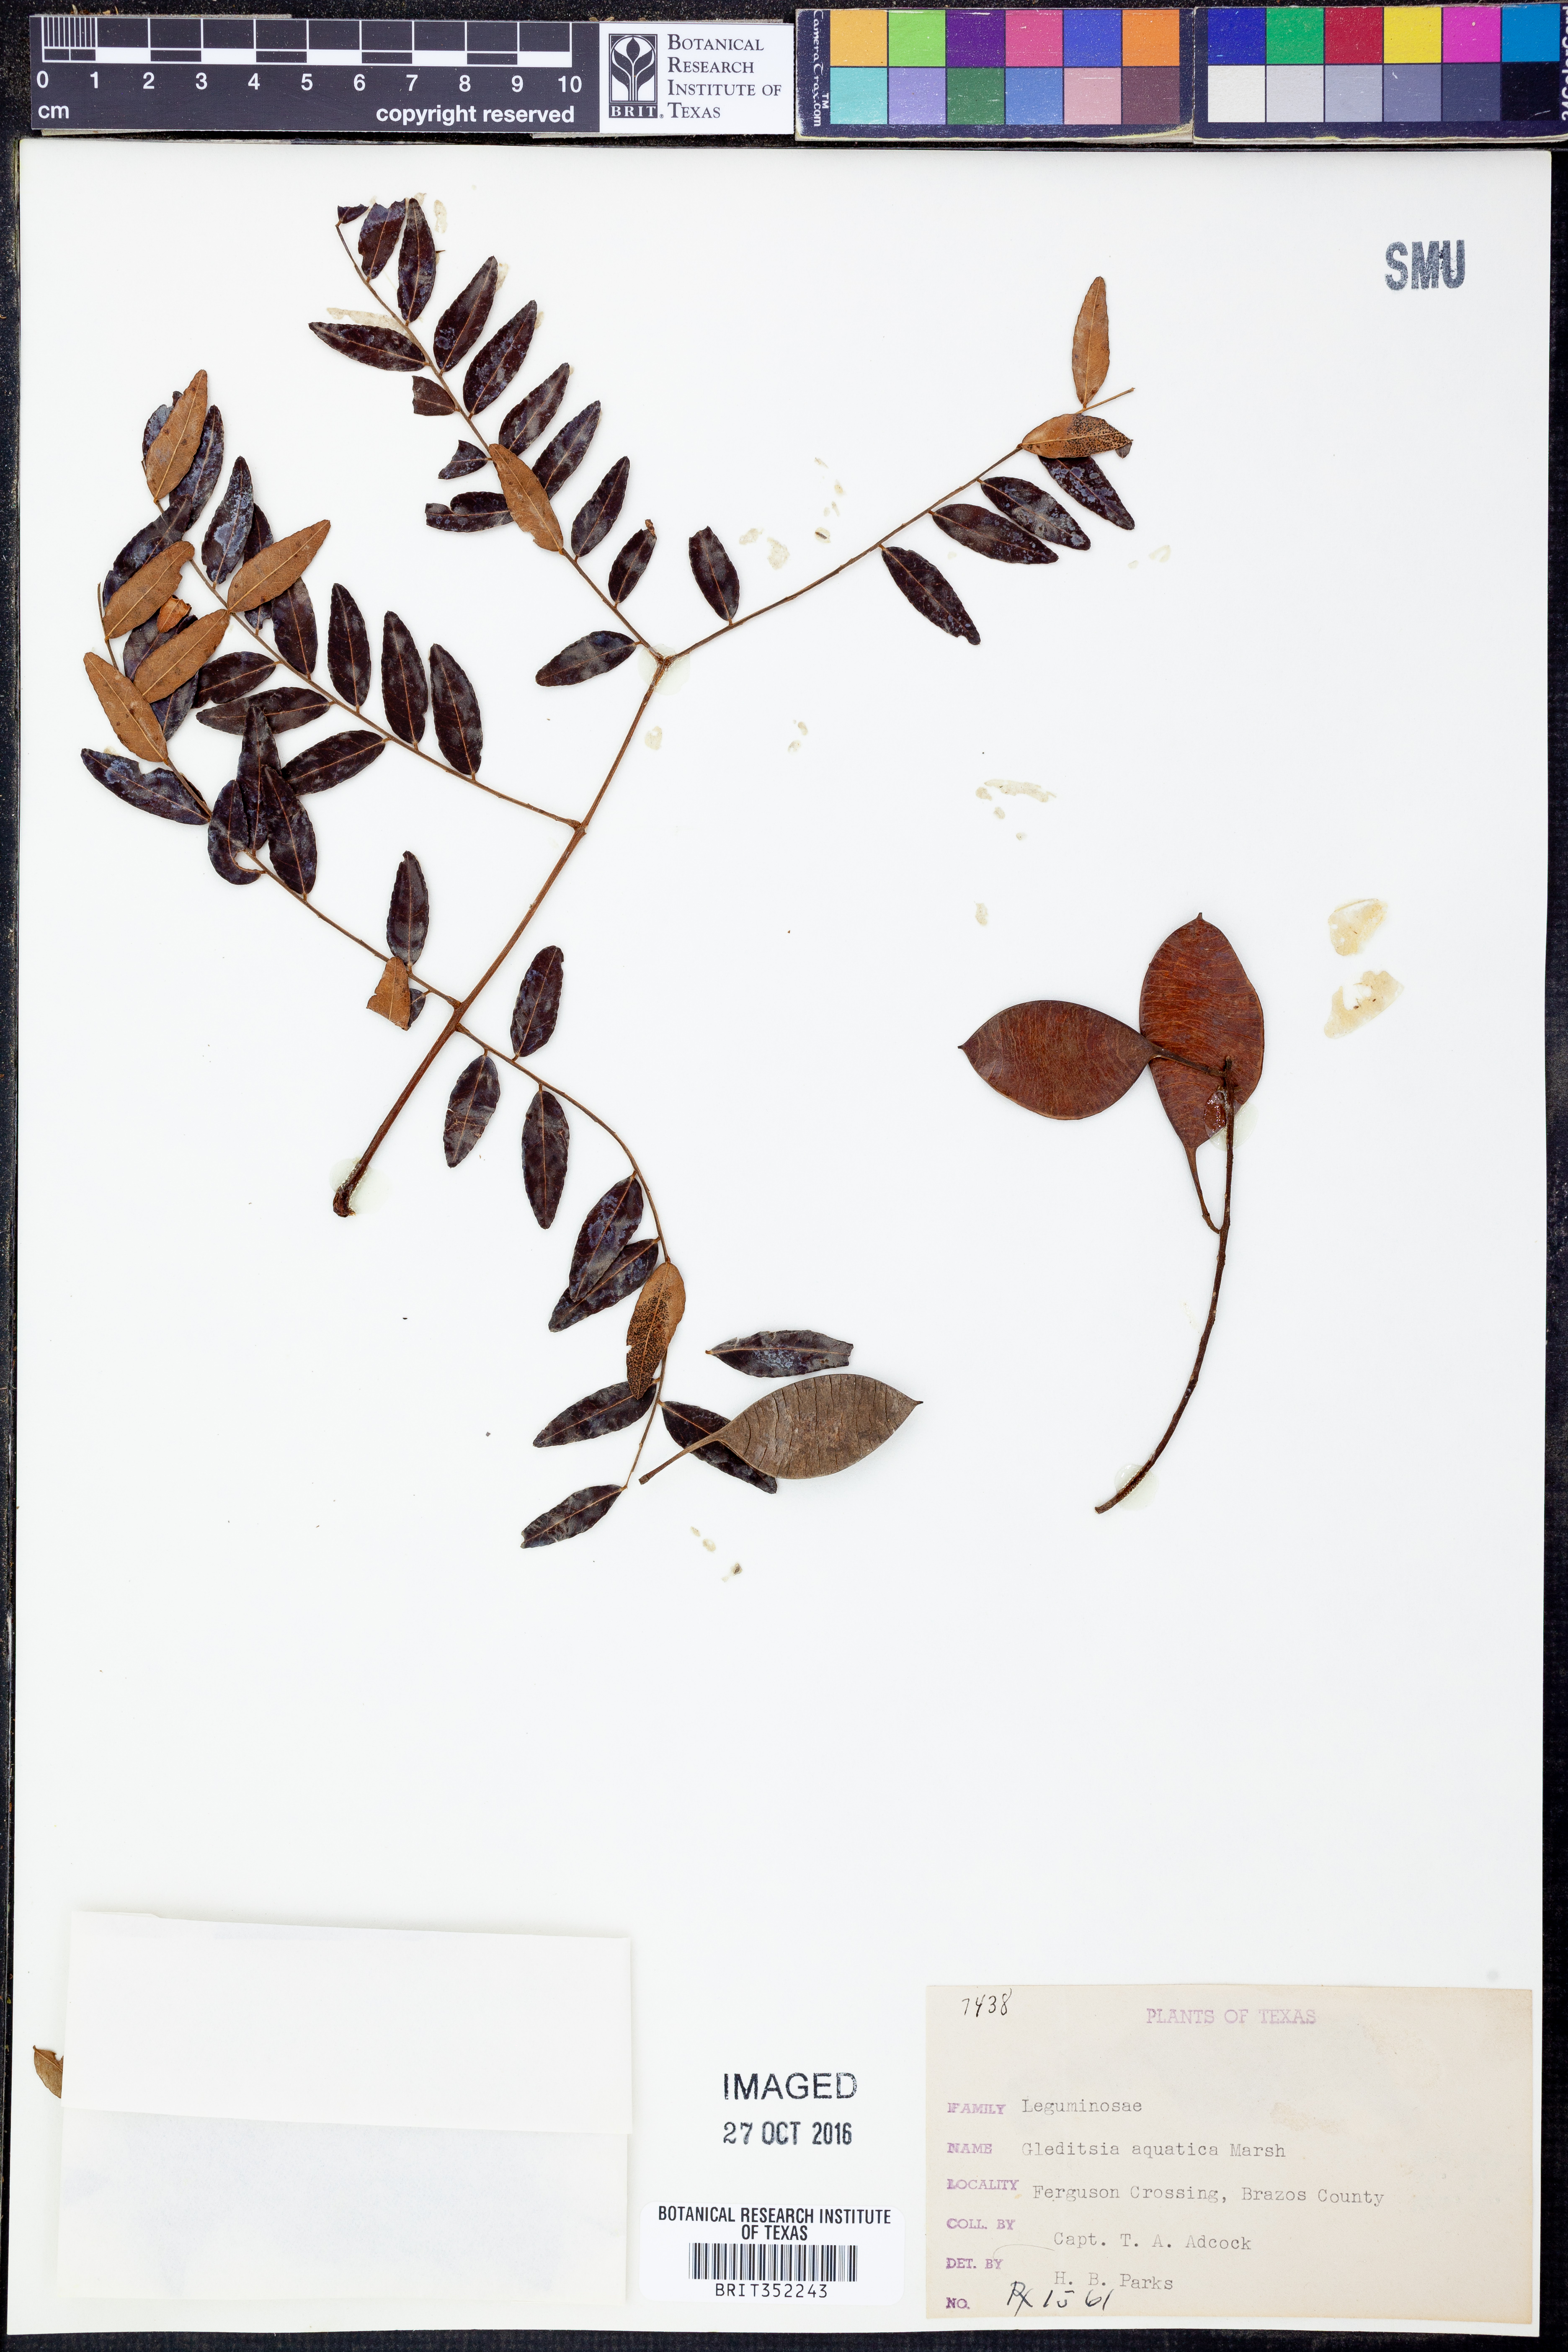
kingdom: Plantae
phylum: Tracheophyta
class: Magnoliopsida
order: Fabales
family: Fabaceae
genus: Gleditsia
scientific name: Gleditsia aquatica
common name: Swamp-locust
